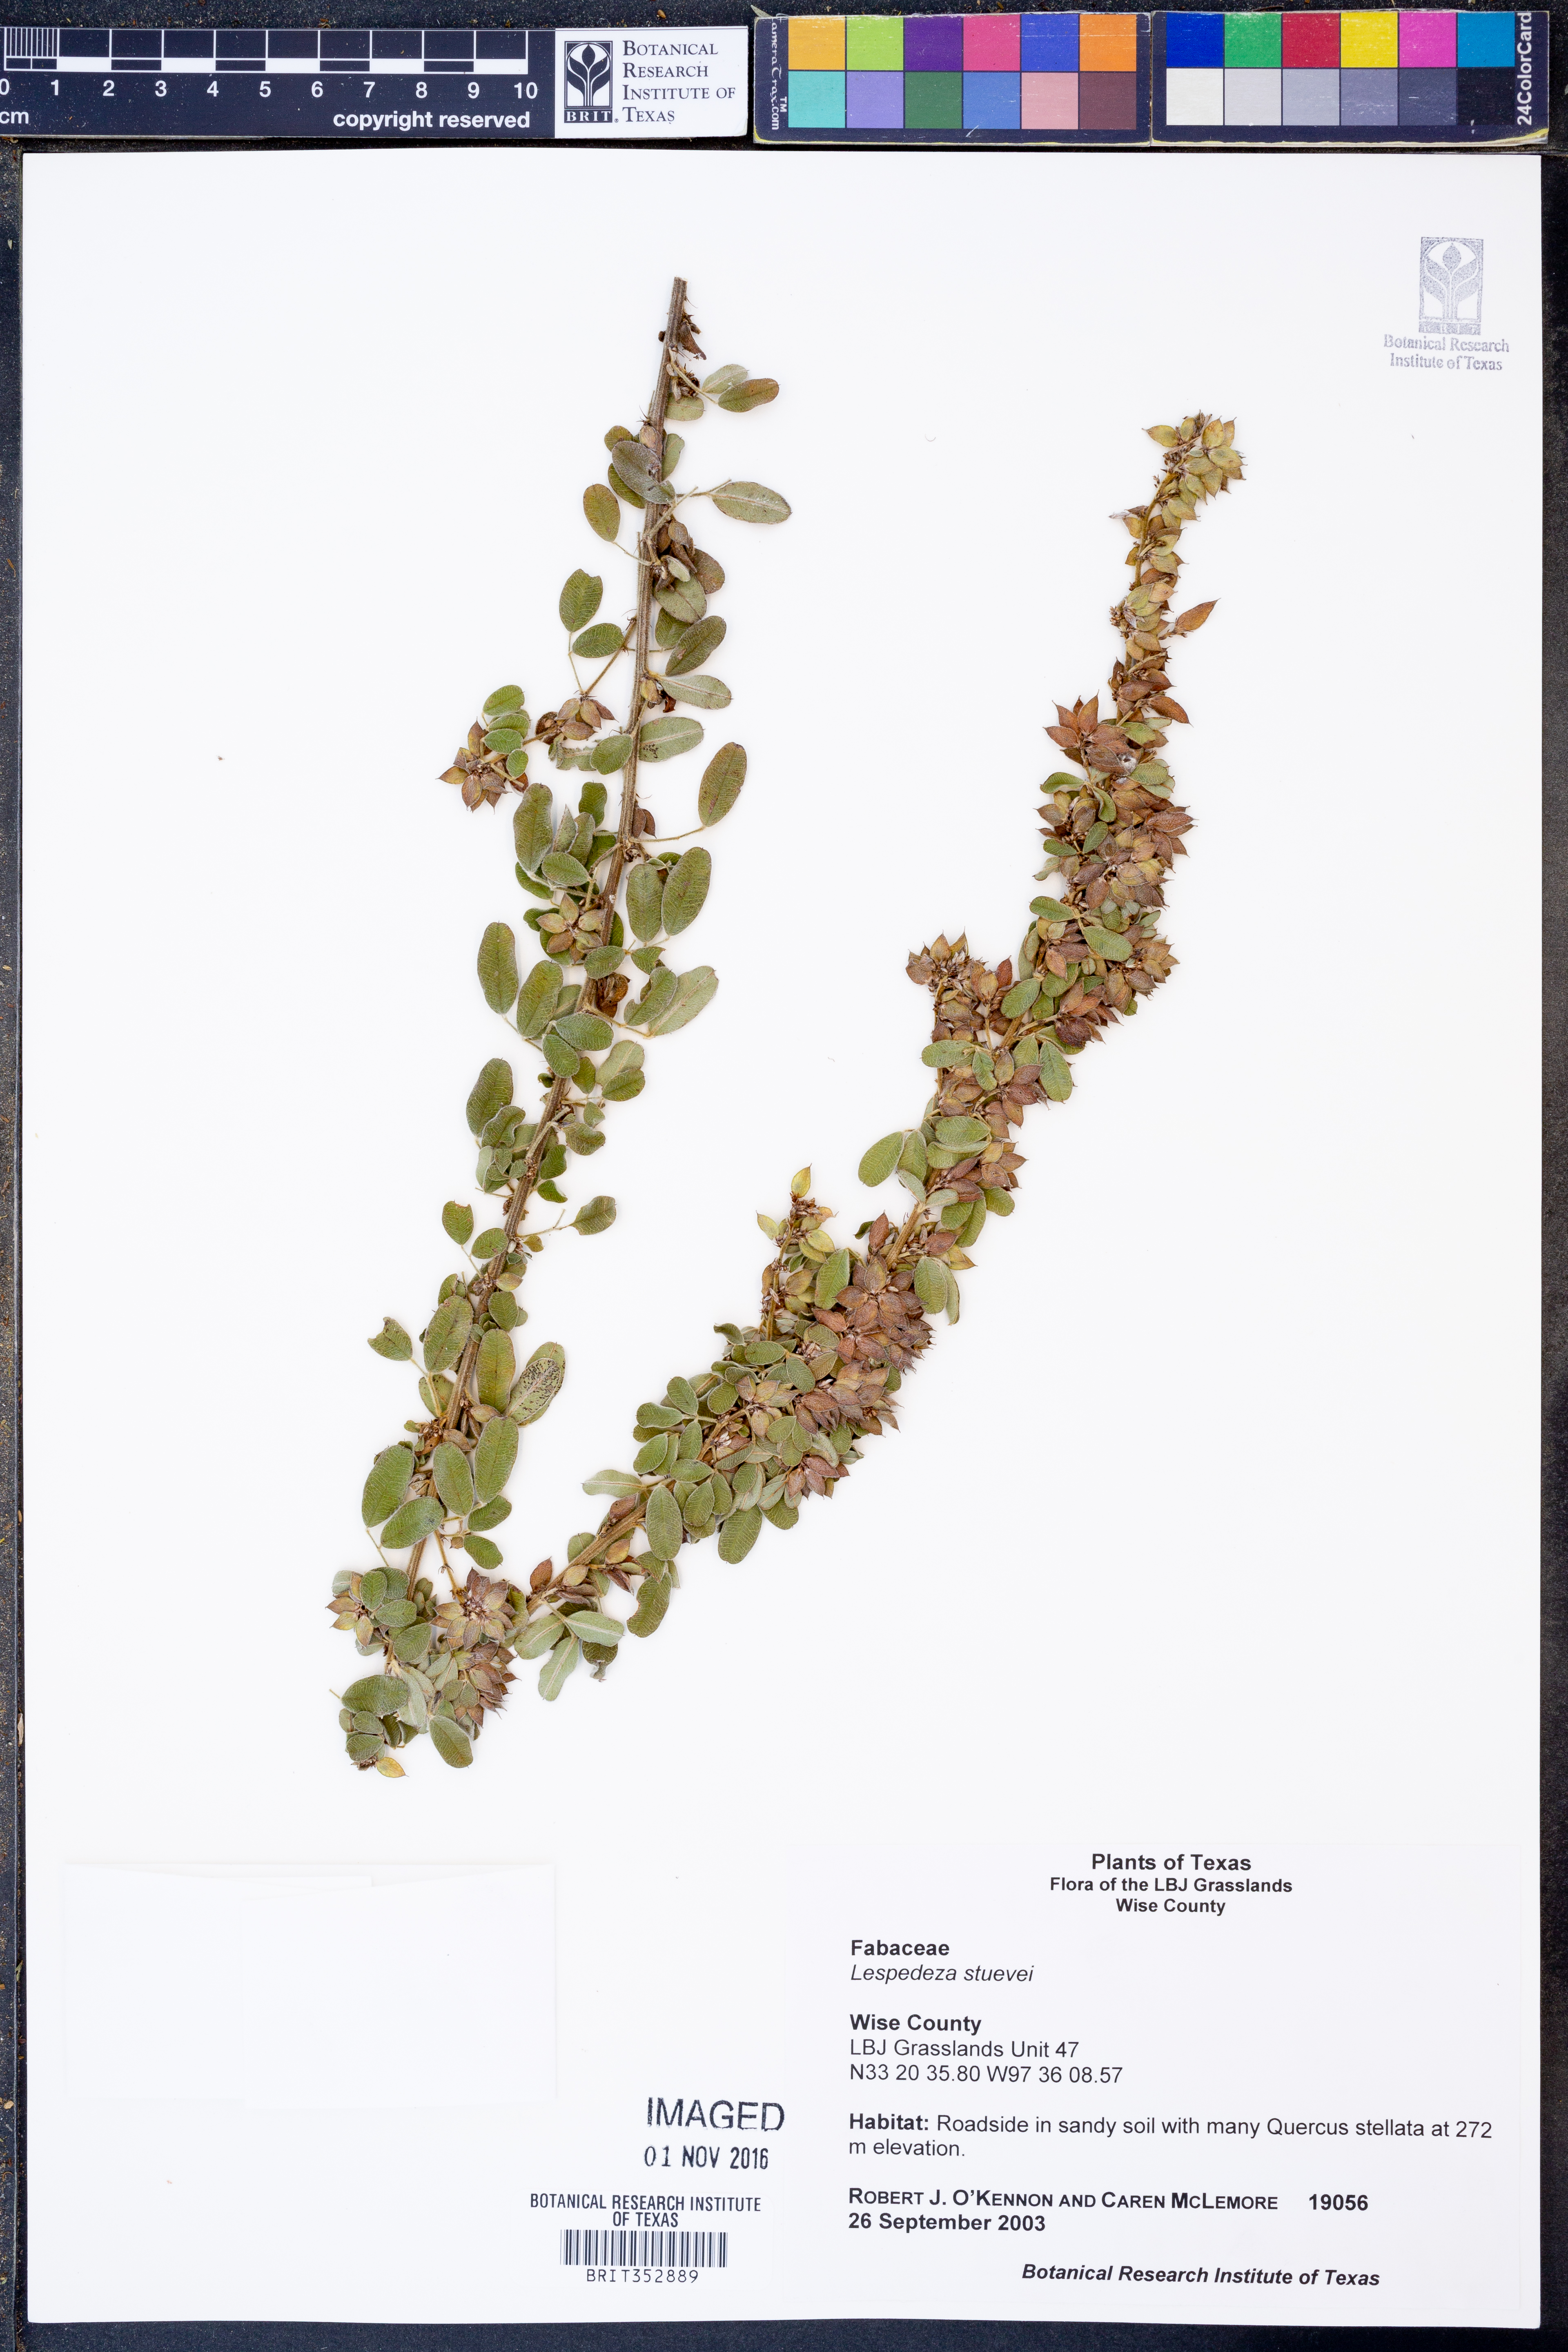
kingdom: Plantae
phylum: Tracheophyta
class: Magnoliopsida
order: Fabales
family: Fabaceae
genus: Lespedeza
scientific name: Lespedeza stuevei
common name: Tall bush-clover
